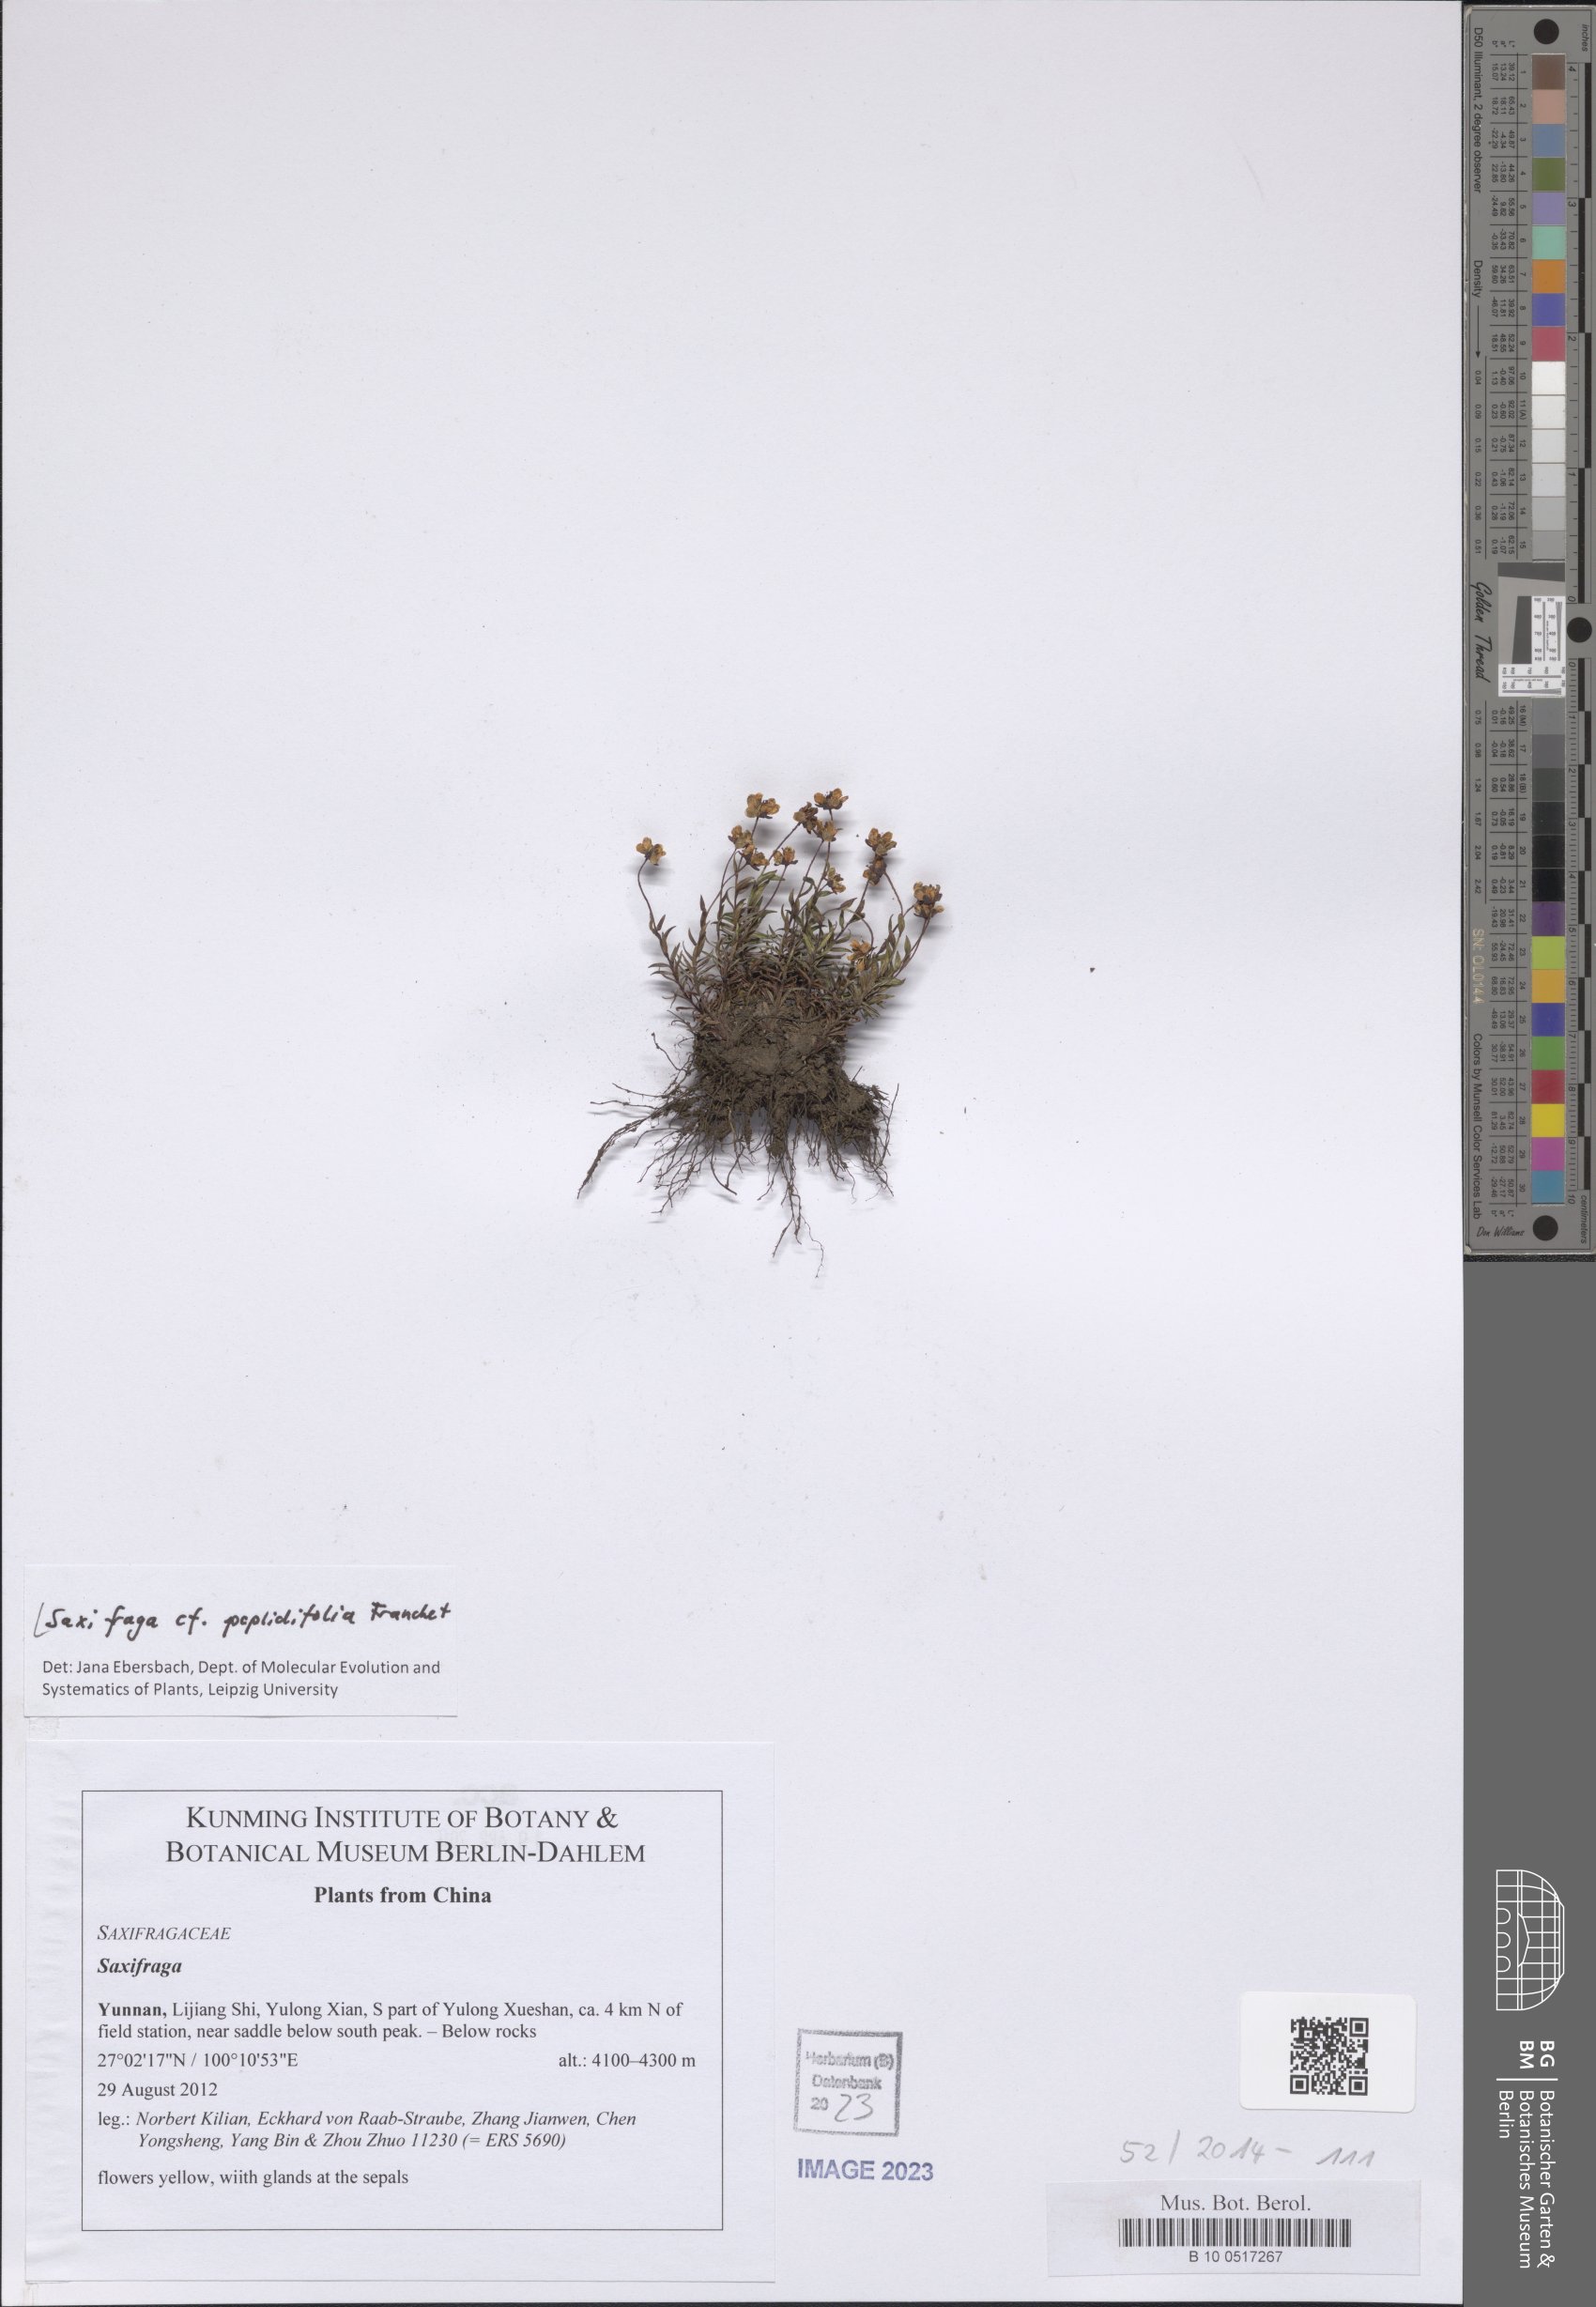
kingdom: Plantae
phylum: Tracheophyta
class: Magnoliopsida
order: Saxifragales
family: Saxifragaceae
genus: Saxifraga
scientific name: Saxifraga peplidifolia
